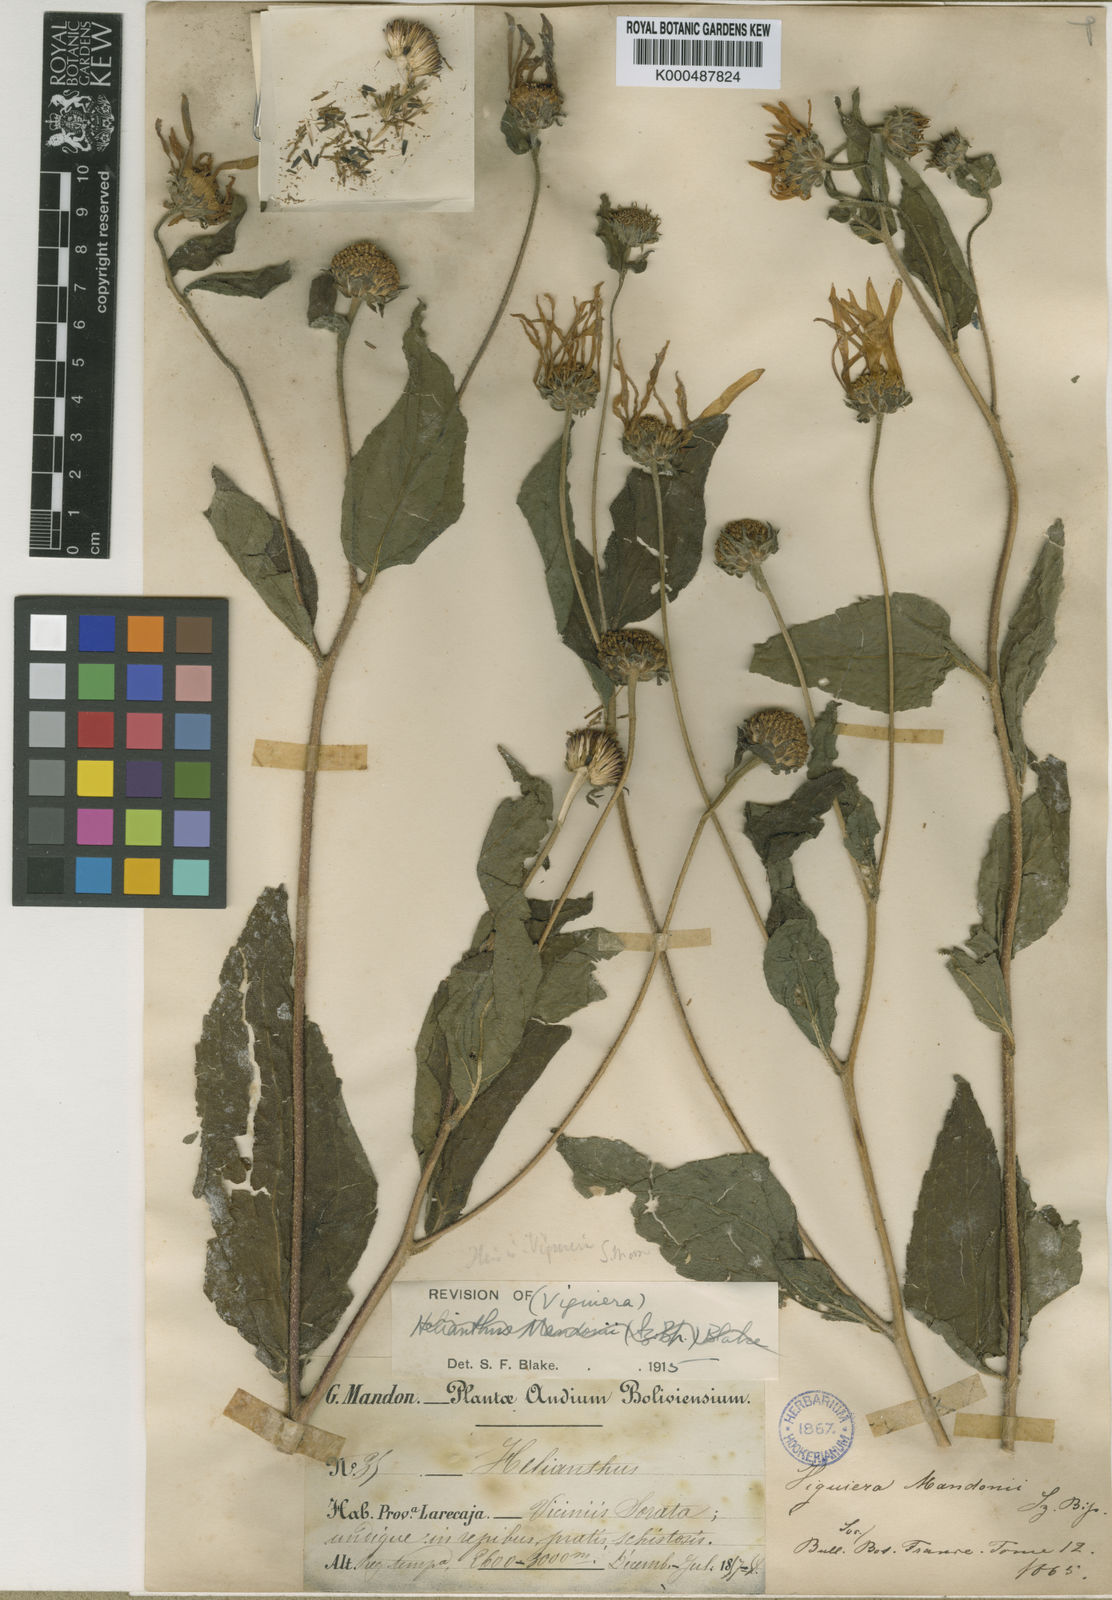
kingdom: Plantae
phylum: Tracheophyta
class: Magnoliopsida
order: Asterales
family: Asteraceae
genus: Aldama
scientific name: Aldama lanceolata
